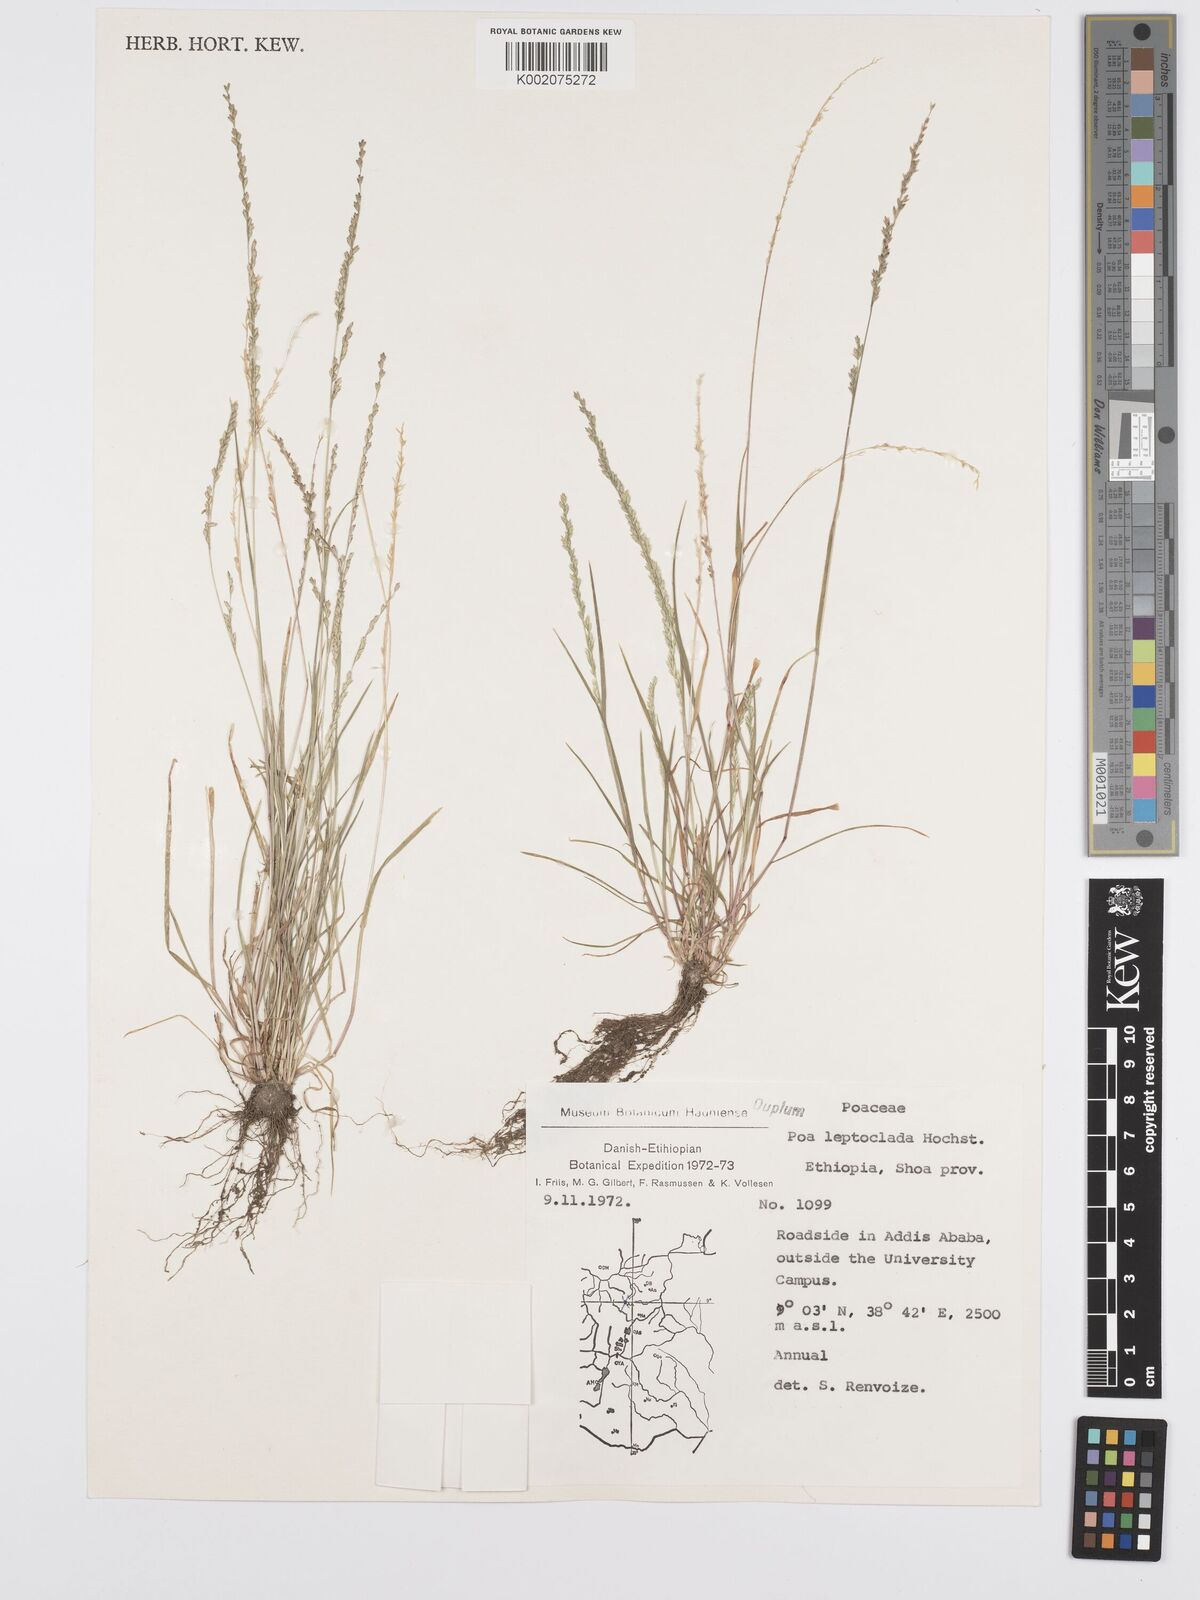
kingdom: Plantae
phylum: Tracheophyta
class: Liliopsida
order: Poales
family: Poaceae
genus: Poa
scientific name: Poa leptoclada
